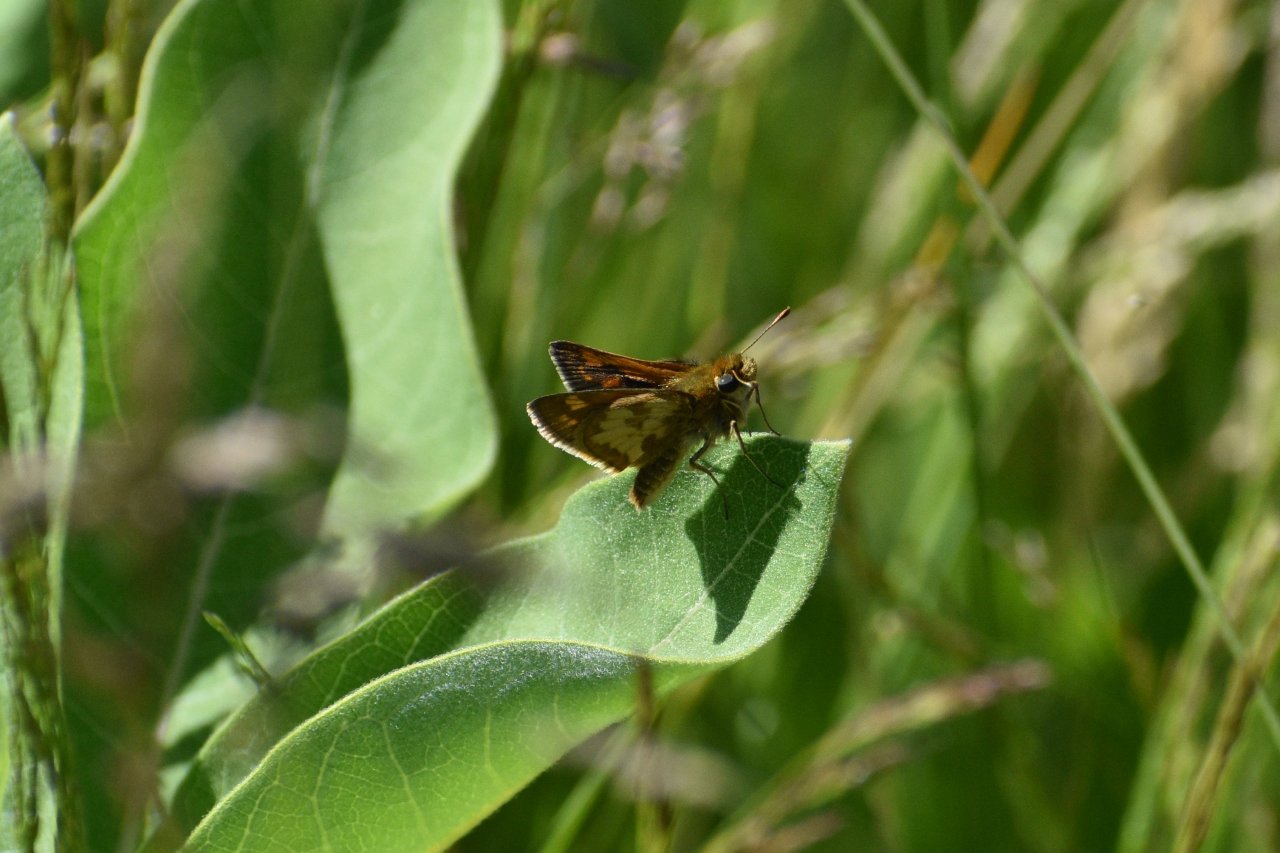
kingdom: Animalia
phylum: Arthropoda
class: Insecta
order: Lepidoptera
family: Hesperiidae
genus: Polites
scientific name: Polites coras
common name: Peck's Skipper
